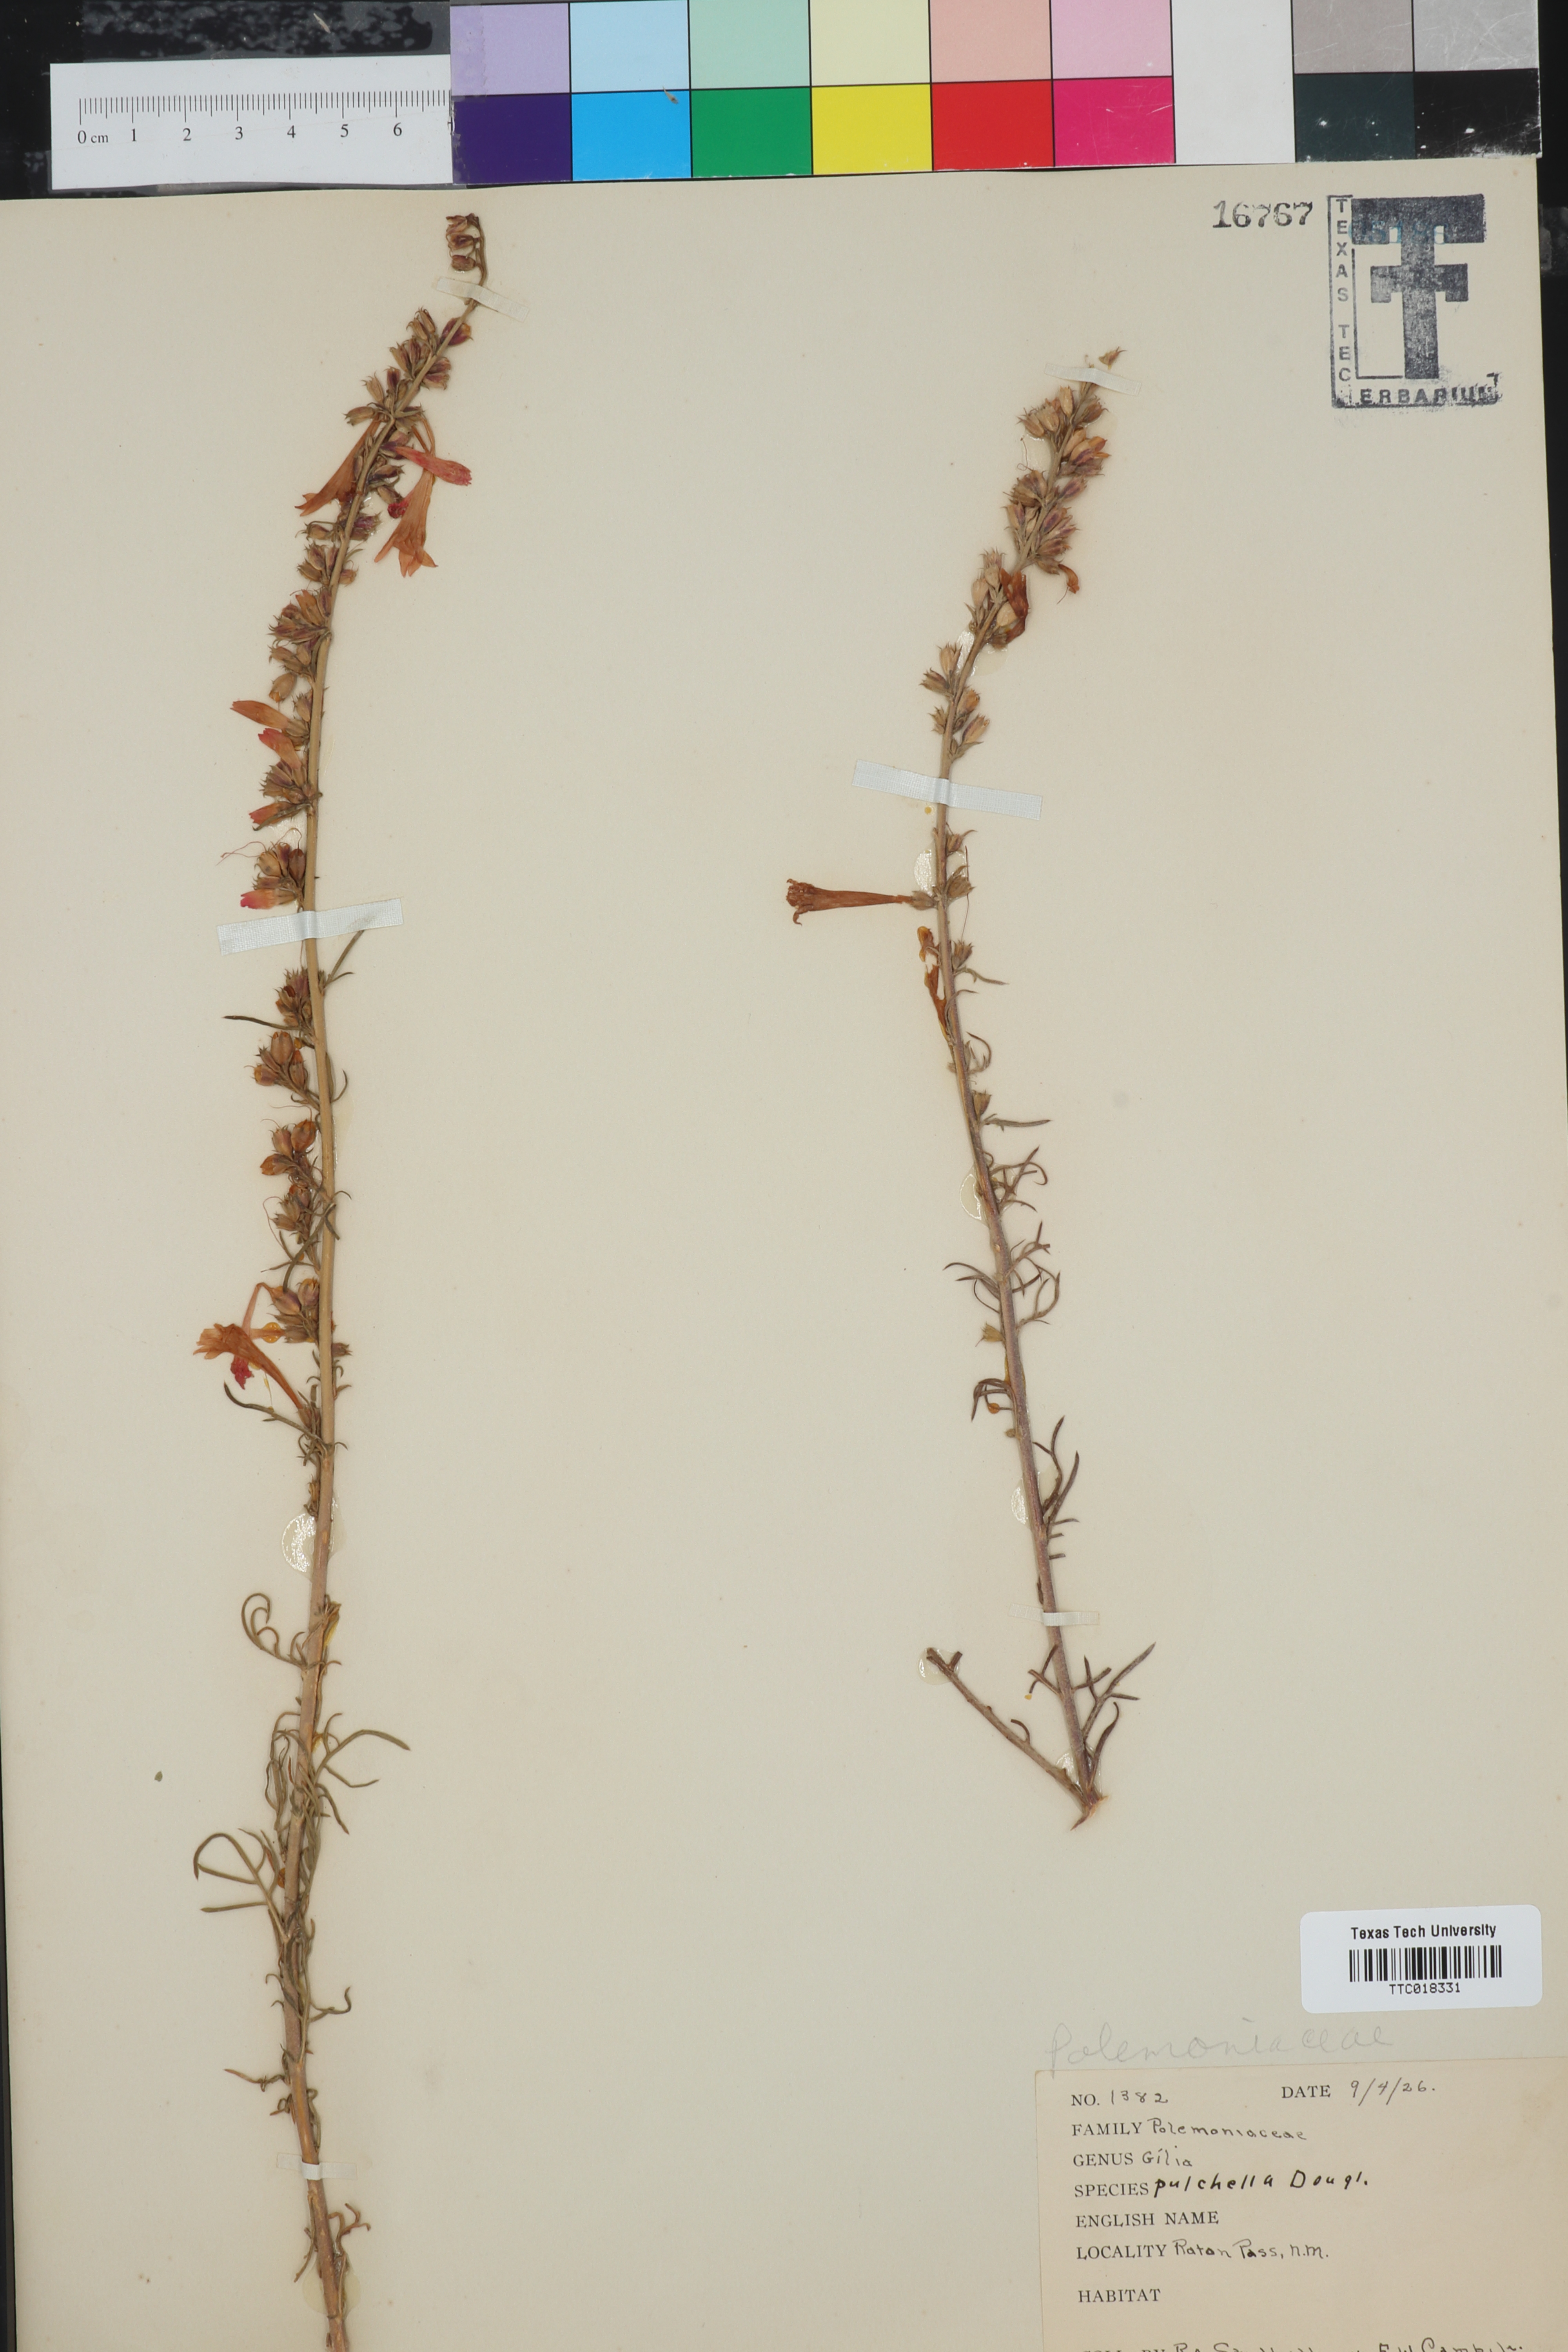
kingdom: Plantae
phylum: Tracheophyta
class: Magnoliopsida
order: Ericales
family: Polemoniaceae
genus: Ipomopsis
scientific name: Ipomopsis aggregata
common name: Scarlet gilia
